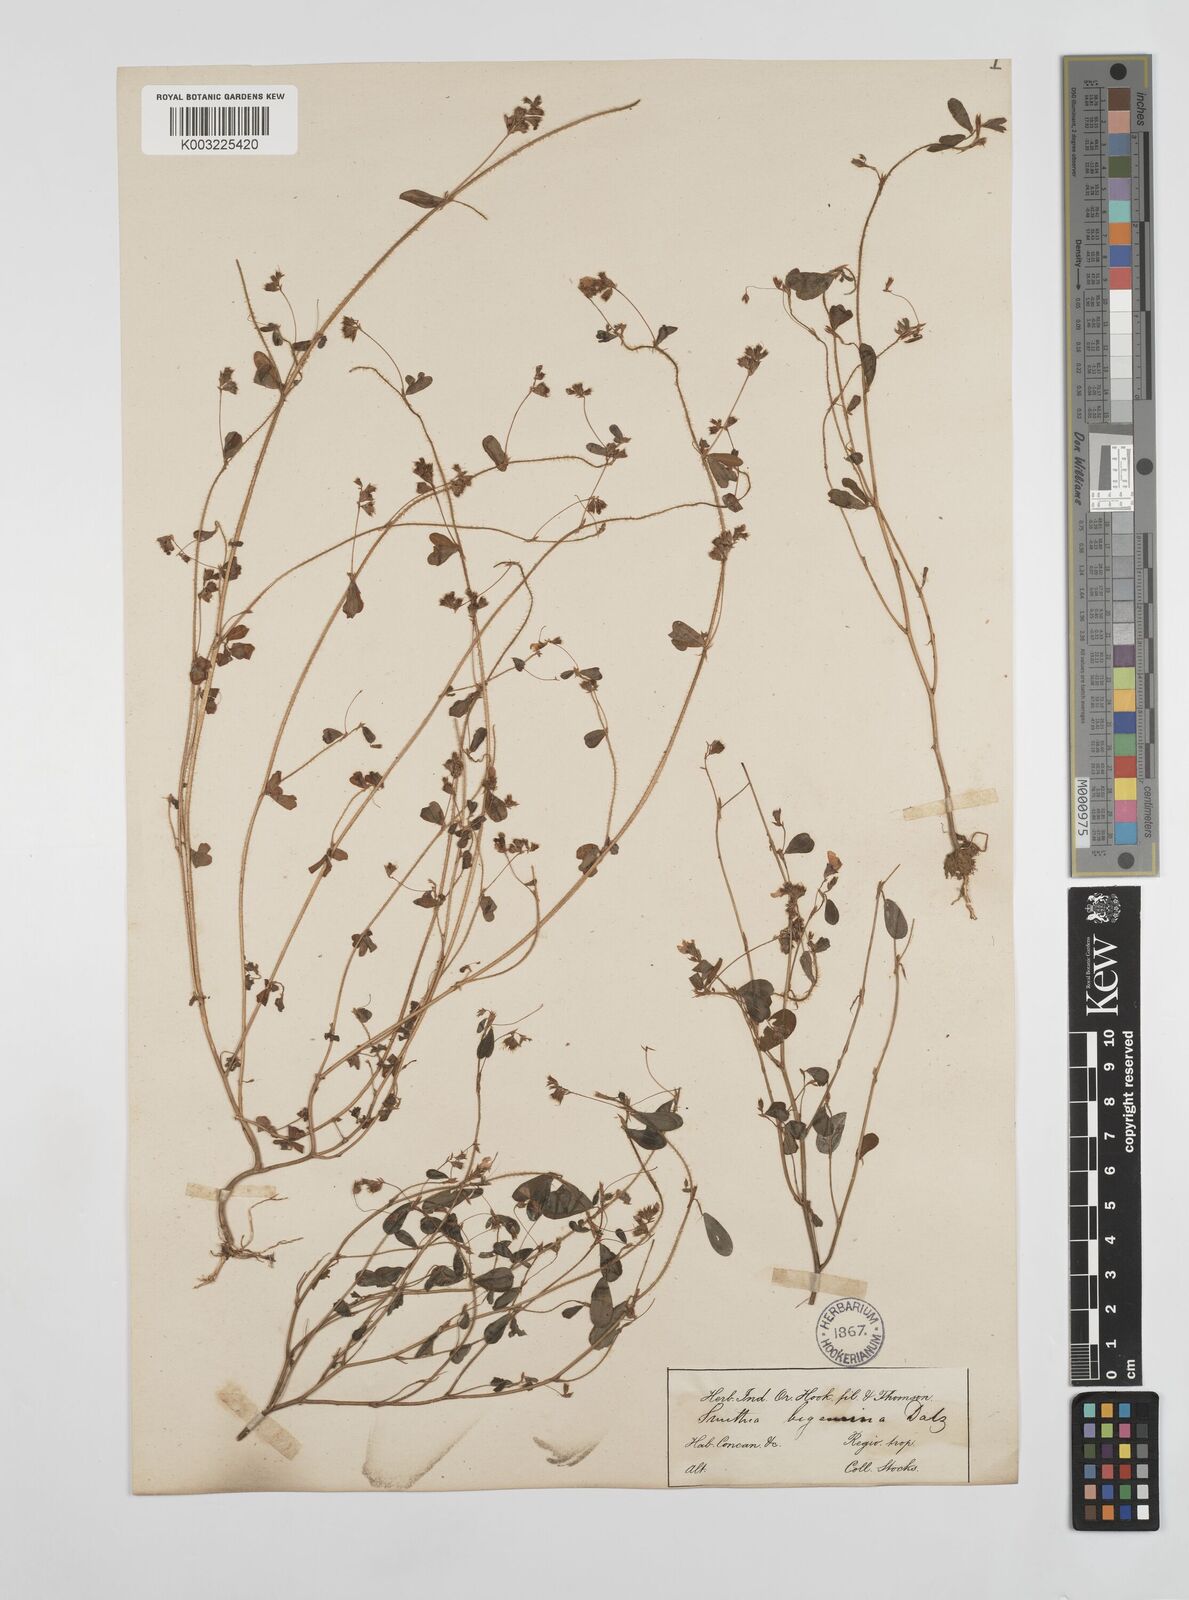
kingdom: Plantae
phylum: Tracheophyta
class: Magnoliopsida
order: Fabales
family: Fabaceae
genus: Smithia
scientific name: Smithia bigemina
